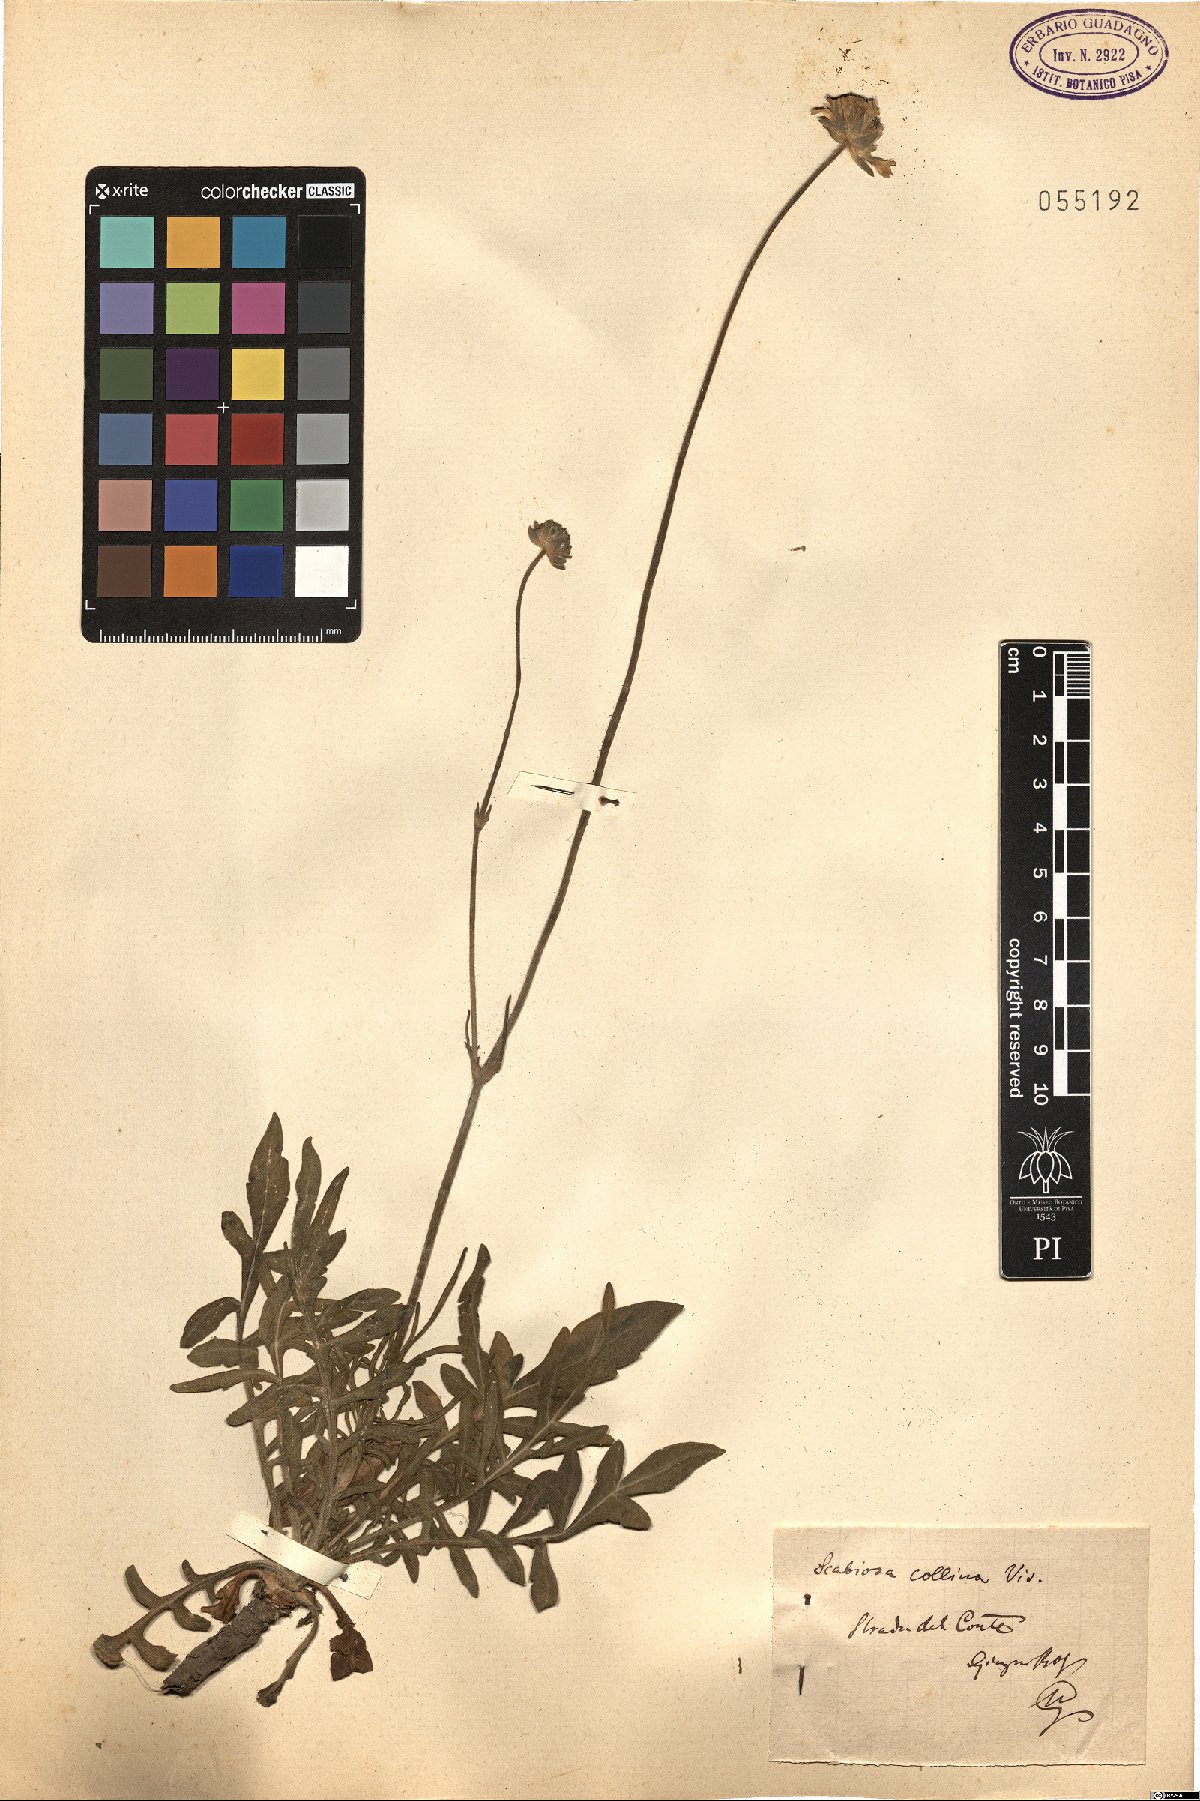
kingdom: Plantae
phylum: Tracheophyta
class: Magnoliopsida
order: Dipsacales
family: Caprifoliaceae
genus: Knautia
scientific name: Knautia collina
